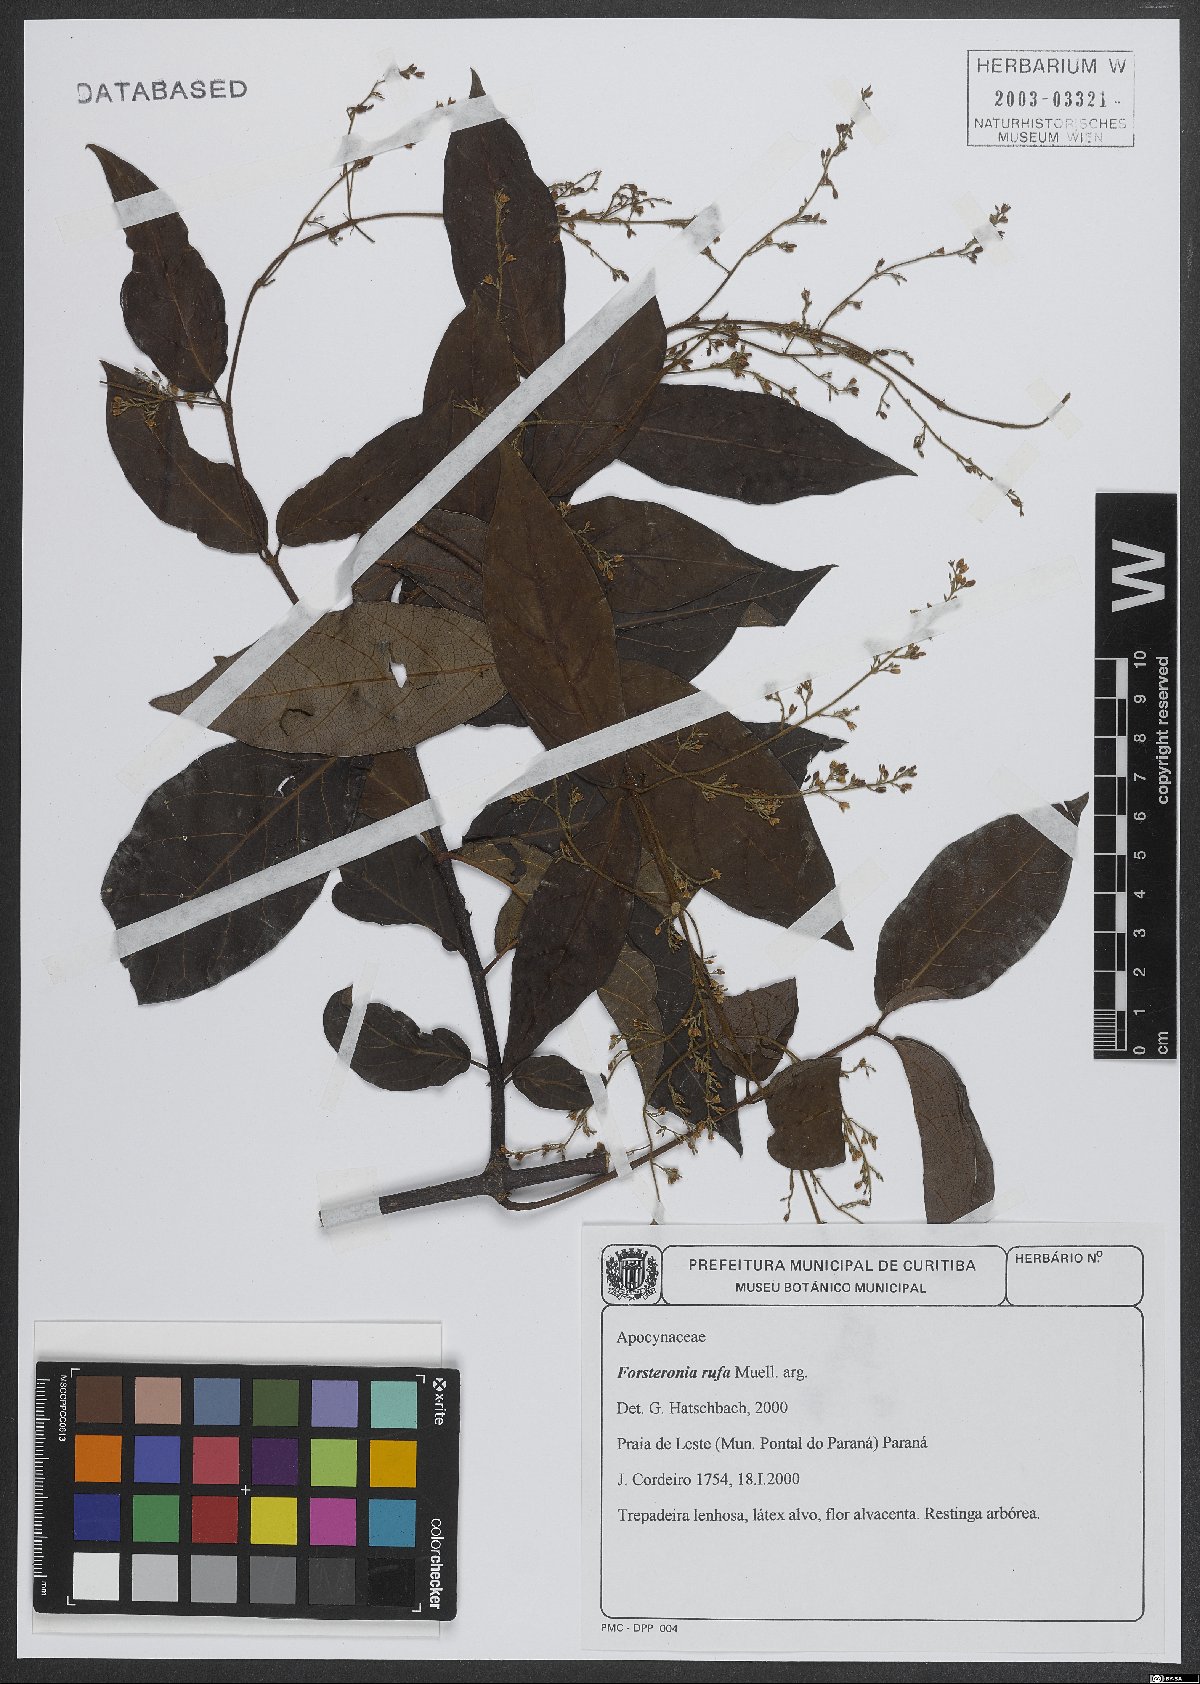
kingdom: Plantae
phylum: Tracheophyta
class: Magnoliopsida
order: Gentianales
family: Apocynaceae
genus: Forsteronia
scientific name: Forsteronia rufa
